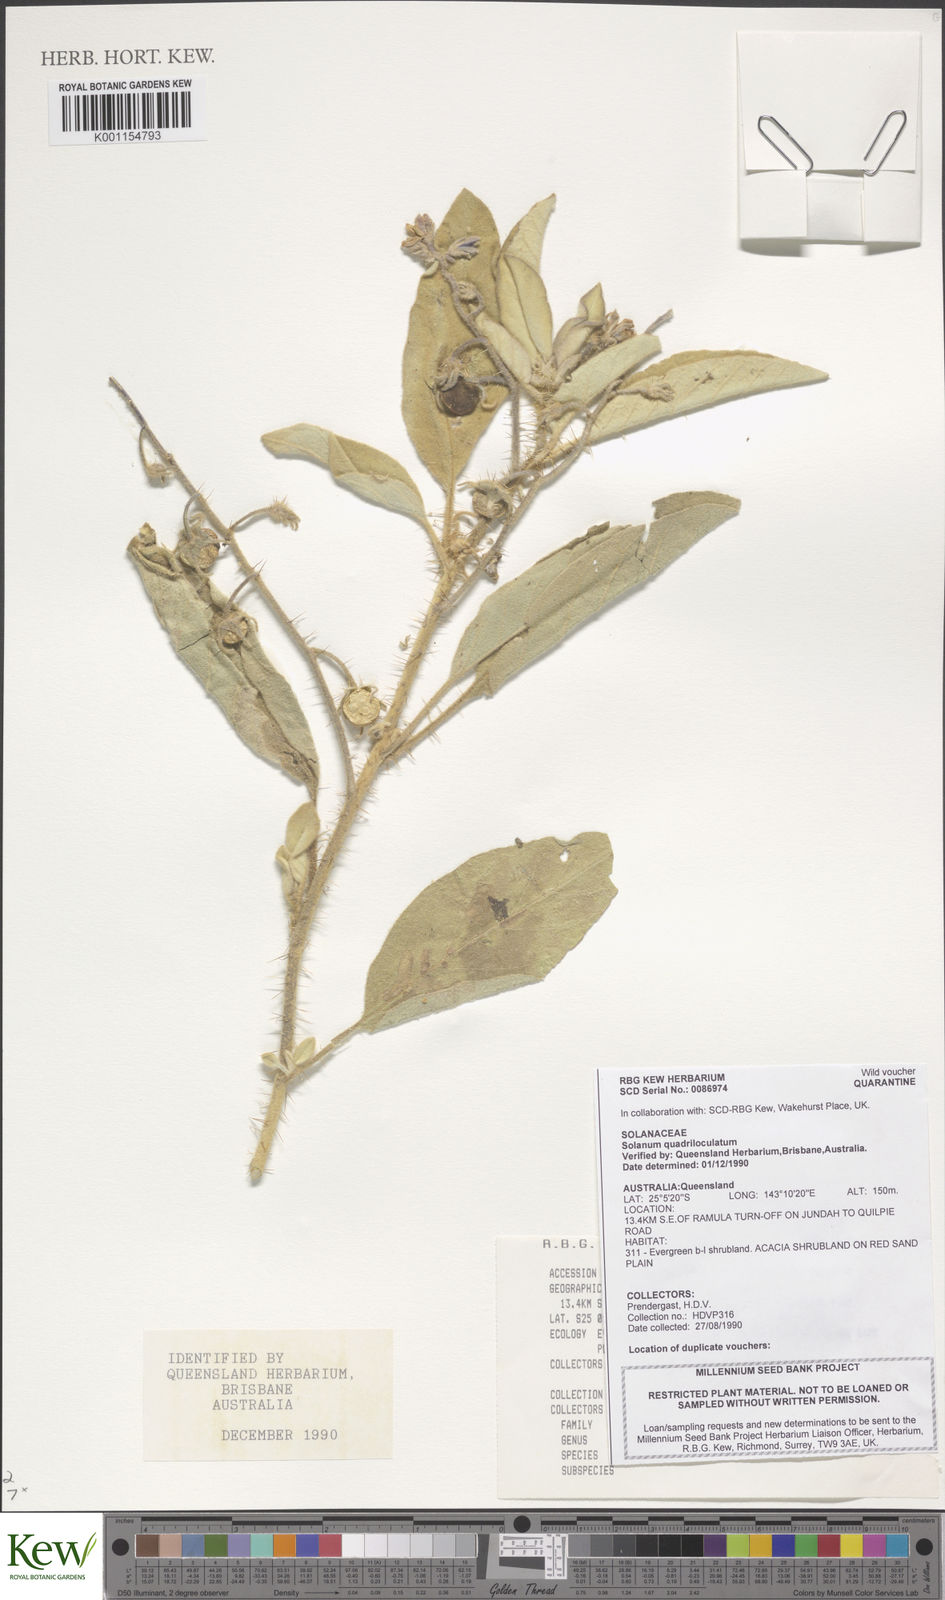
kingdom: Plantae
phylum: Tracheophyta
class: Magnoliopsida
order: Solanales
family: Solanaceae
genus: Solanum
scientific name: Solanum quadriloculatum
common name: Wild tomato
